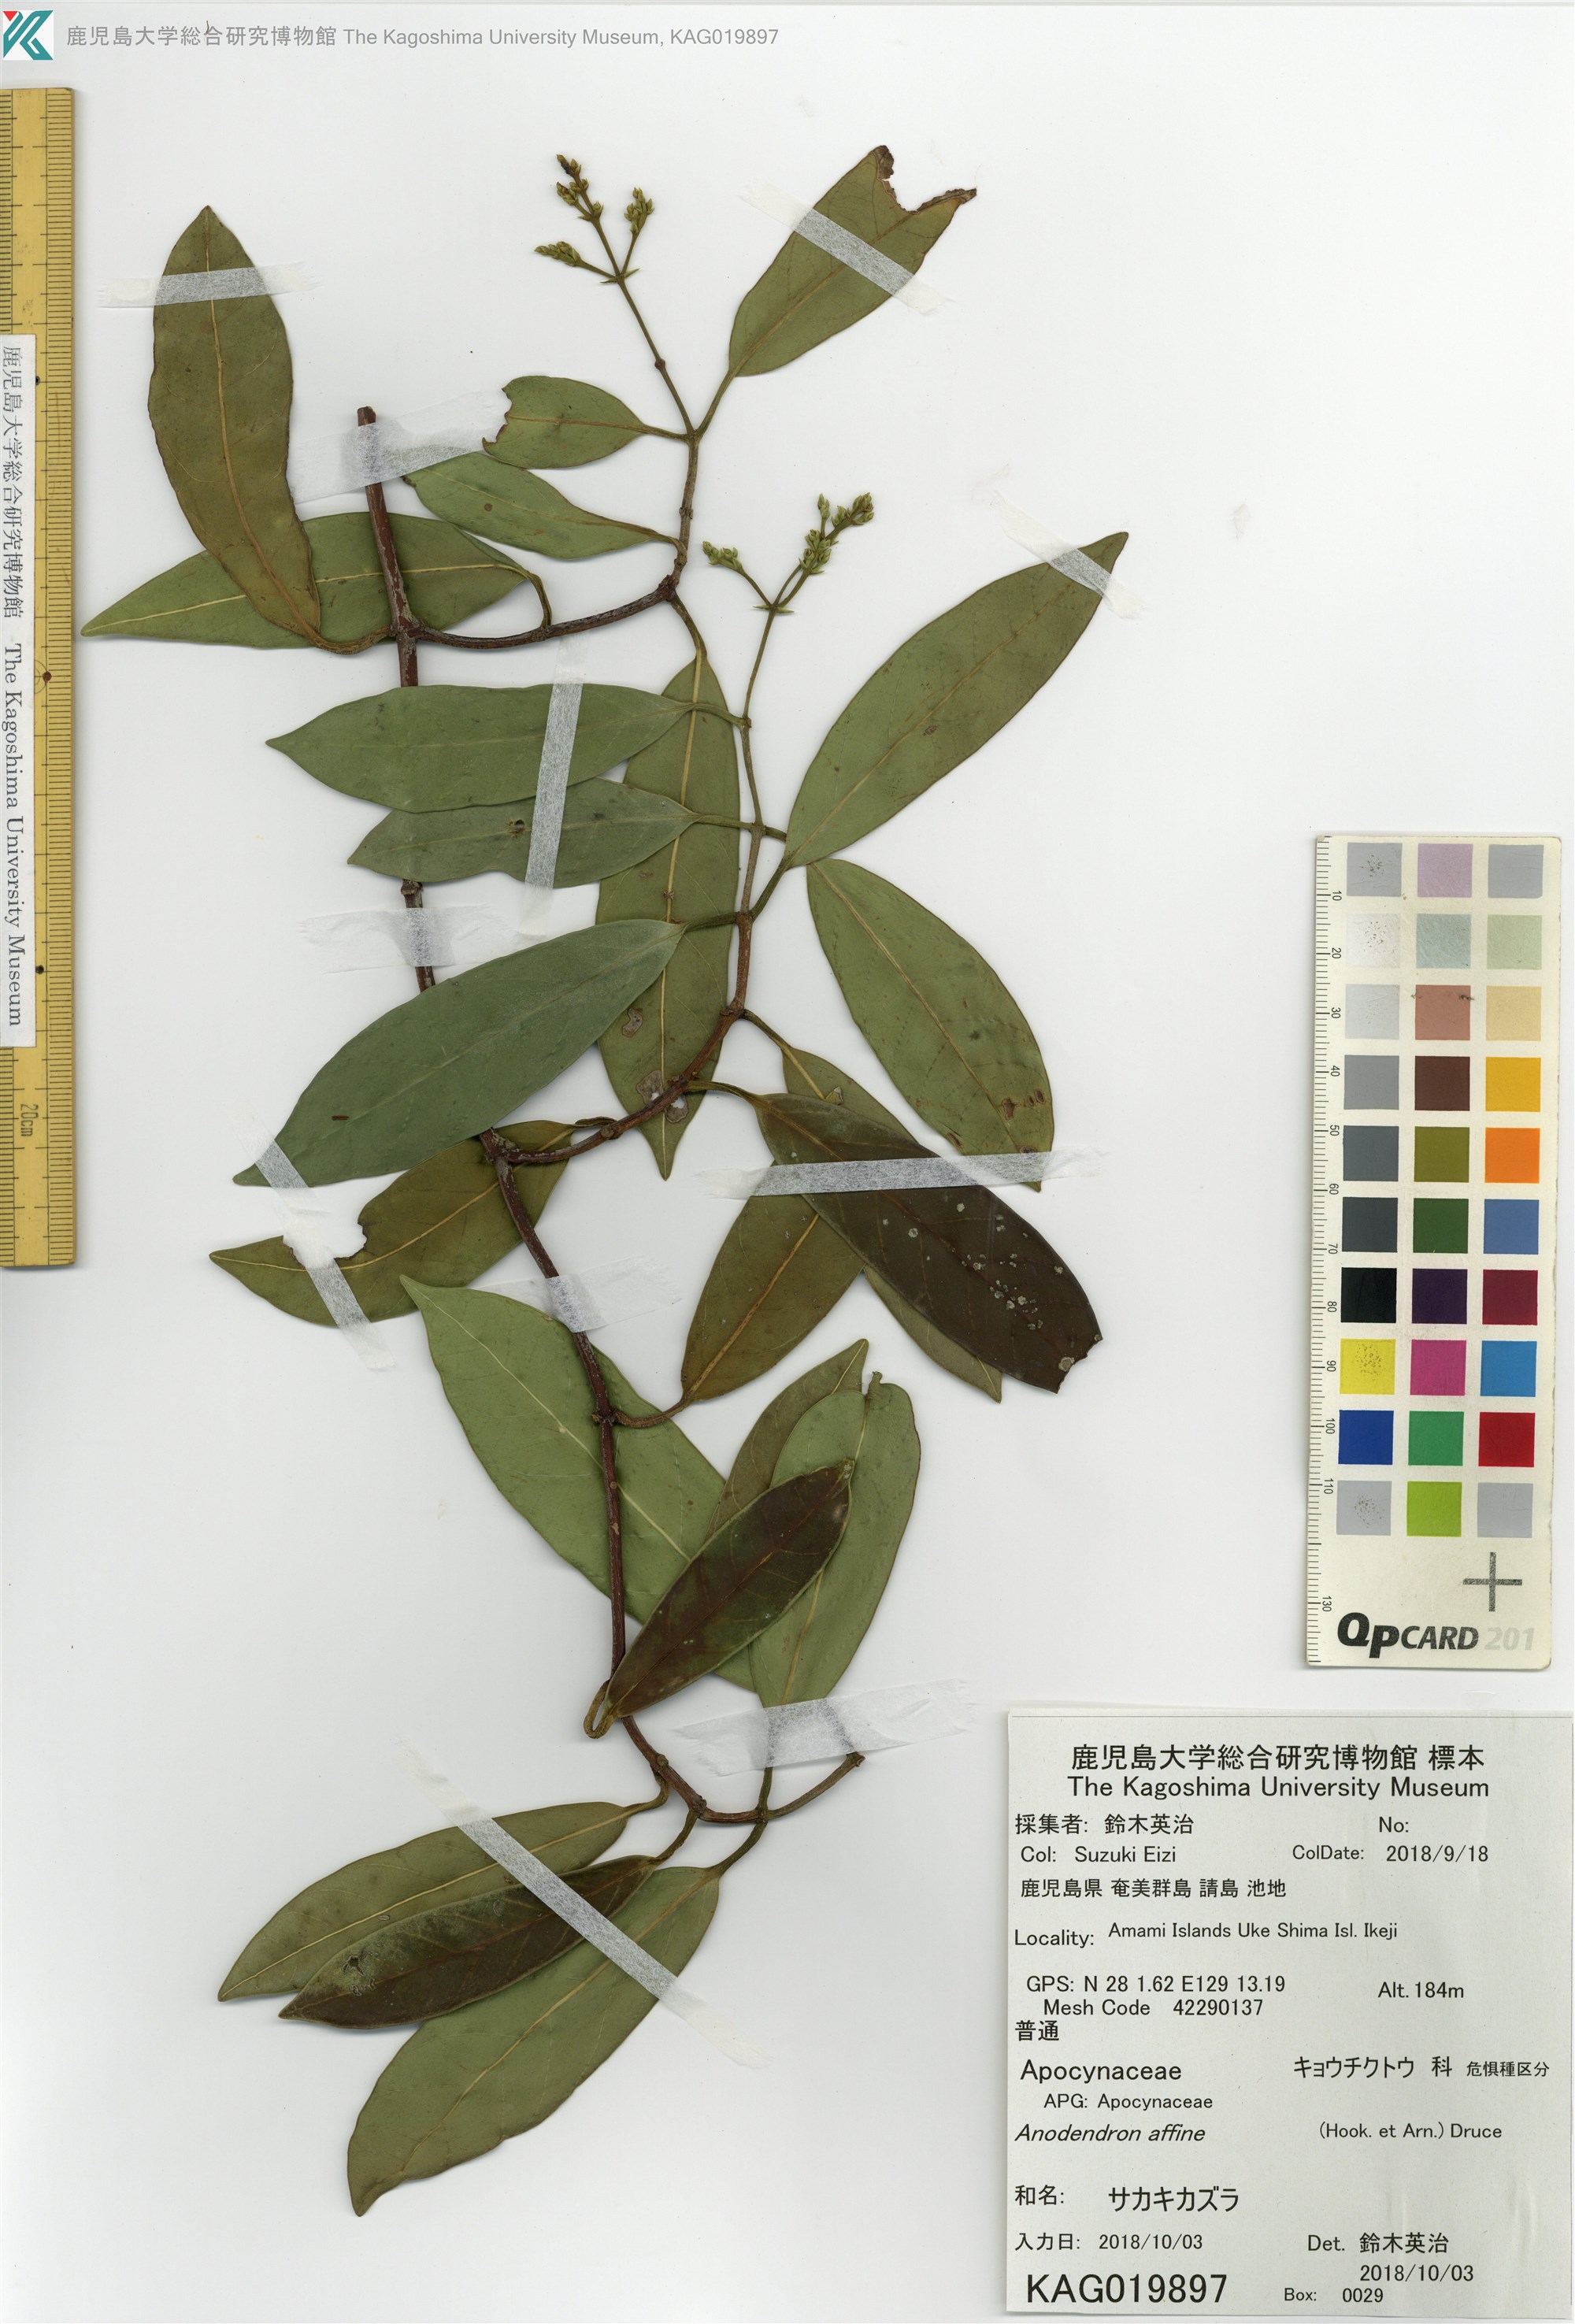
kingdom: Plantae
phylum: Tracheophyta
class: Magnoliopsida
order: Gentianales
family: Apocynaceae
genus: Anodendron
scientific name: Anodendron affine
